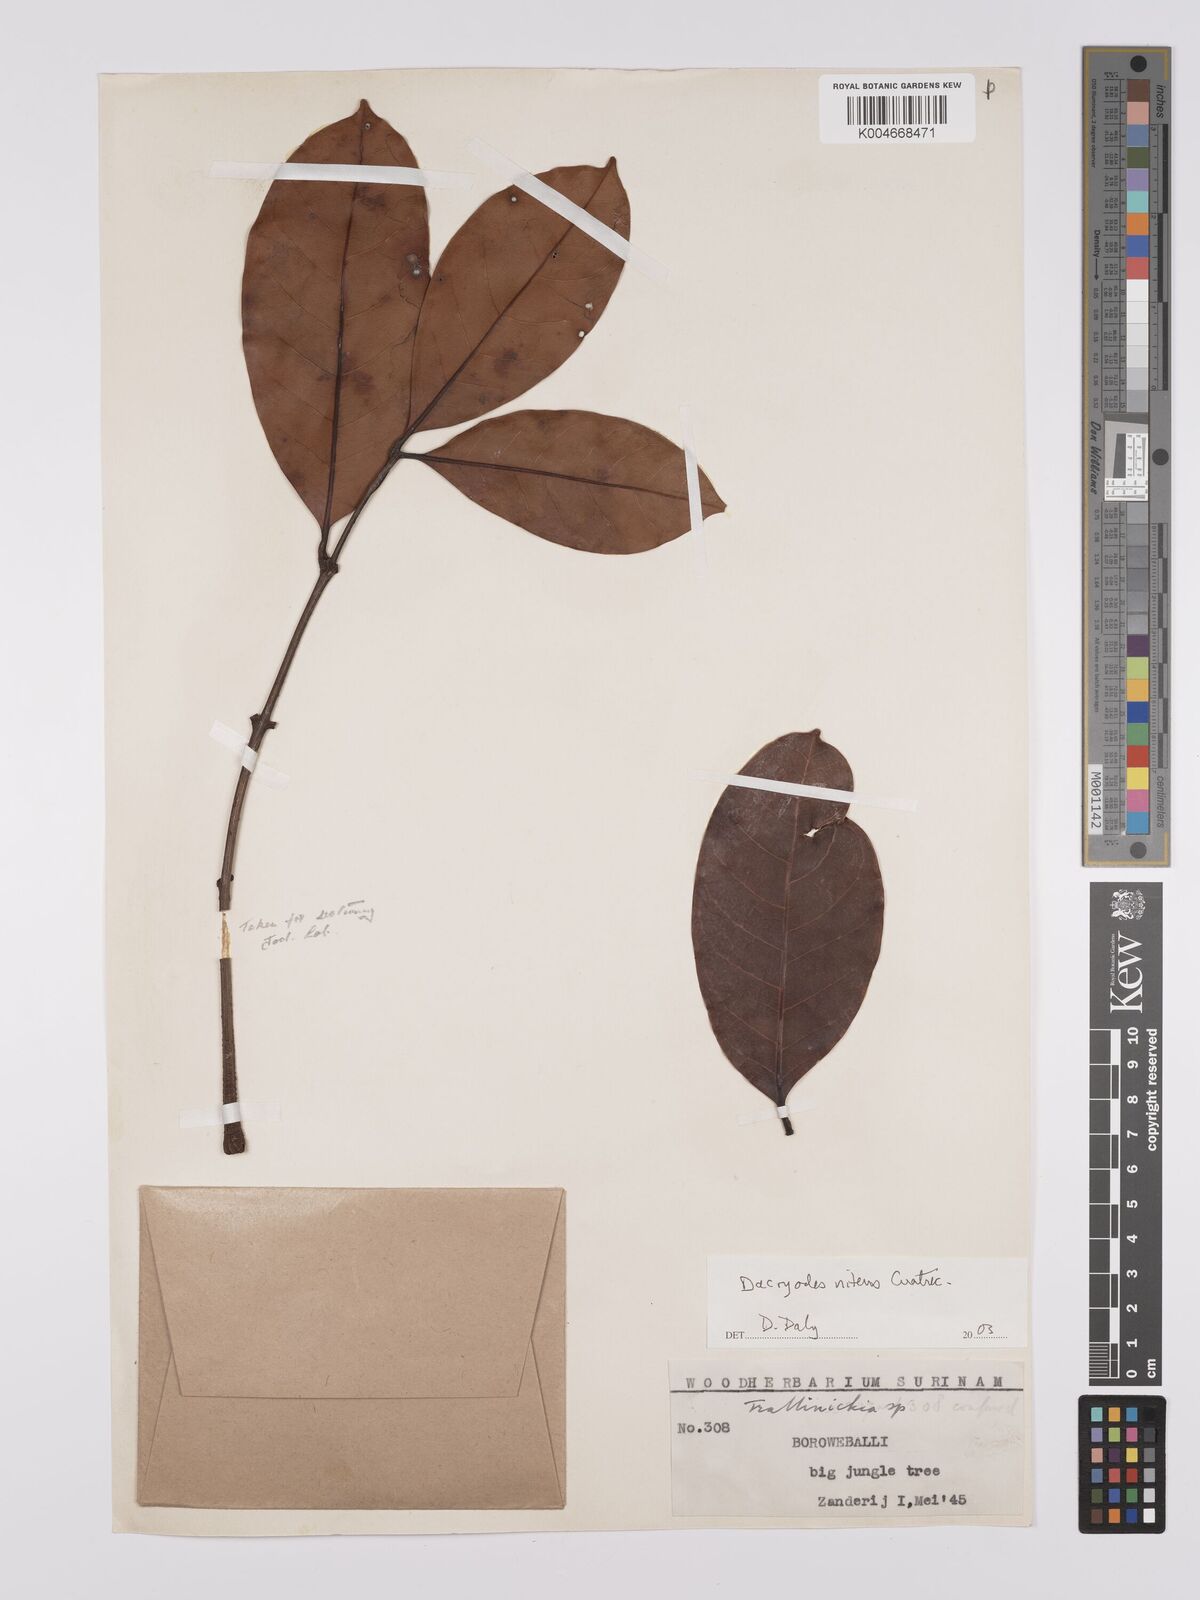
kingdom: Plantae
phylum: Tracheophyta
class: Magnoliopsida
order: Sapindales
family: Burseraceae
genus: Dacryodes
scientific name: Dacryodes nitens
